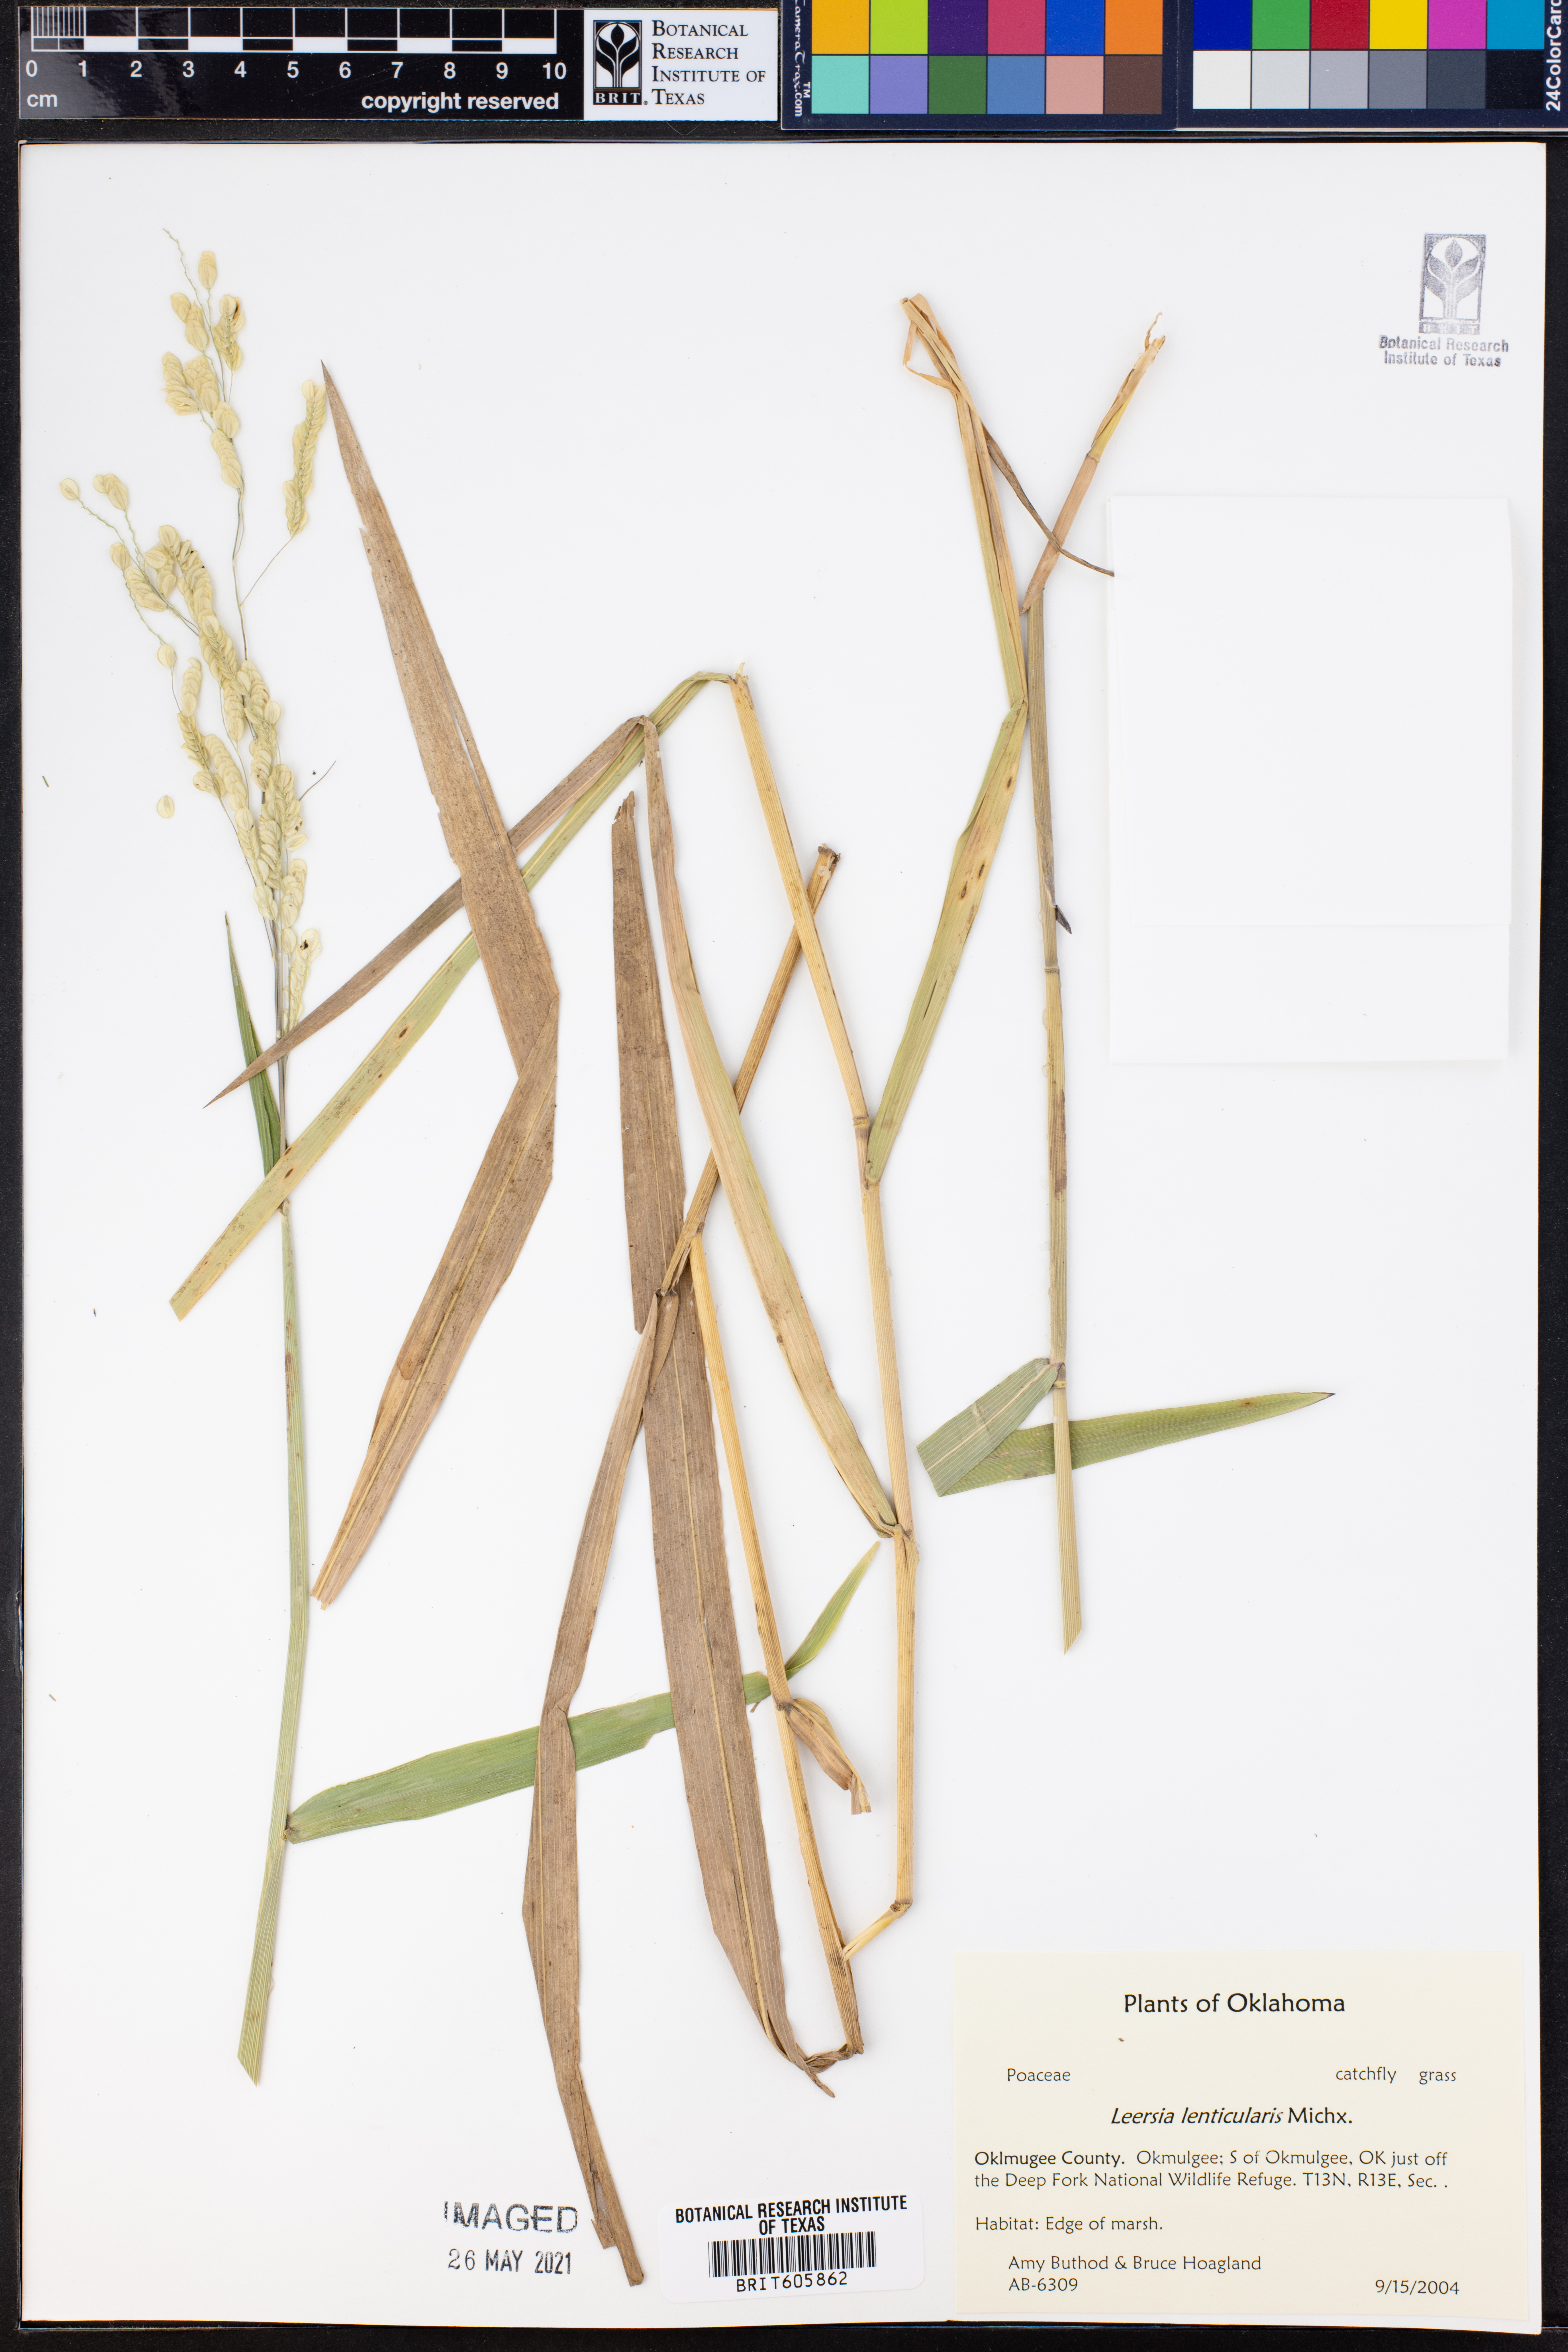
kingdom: Plantae
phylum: Tracheophyta
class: Liliopsida
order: Poales
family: Poaceae
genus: Leersia
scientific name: Leersia lenticularis
